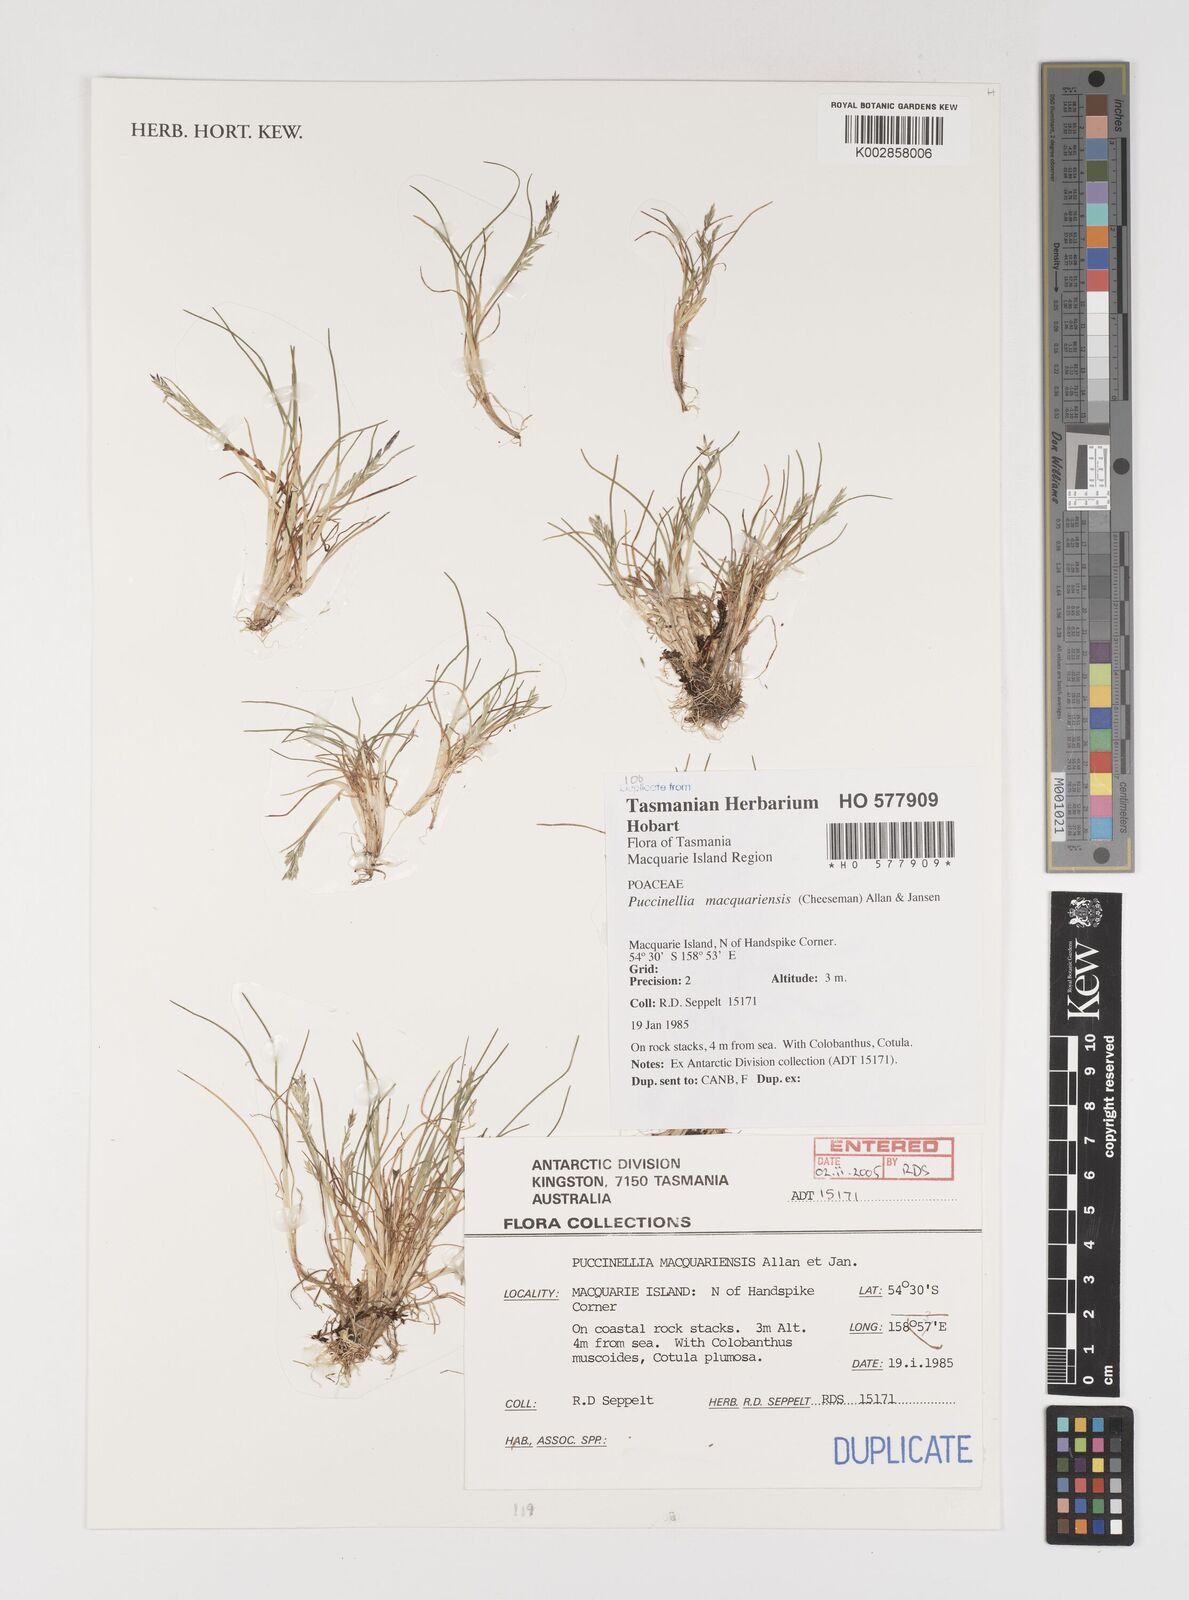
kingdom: Plantae
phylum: Tracheophyta
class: Liliopsida
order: Poales
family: Poaceae
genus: Puccinellia
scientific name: Puccinellia macquariensis
